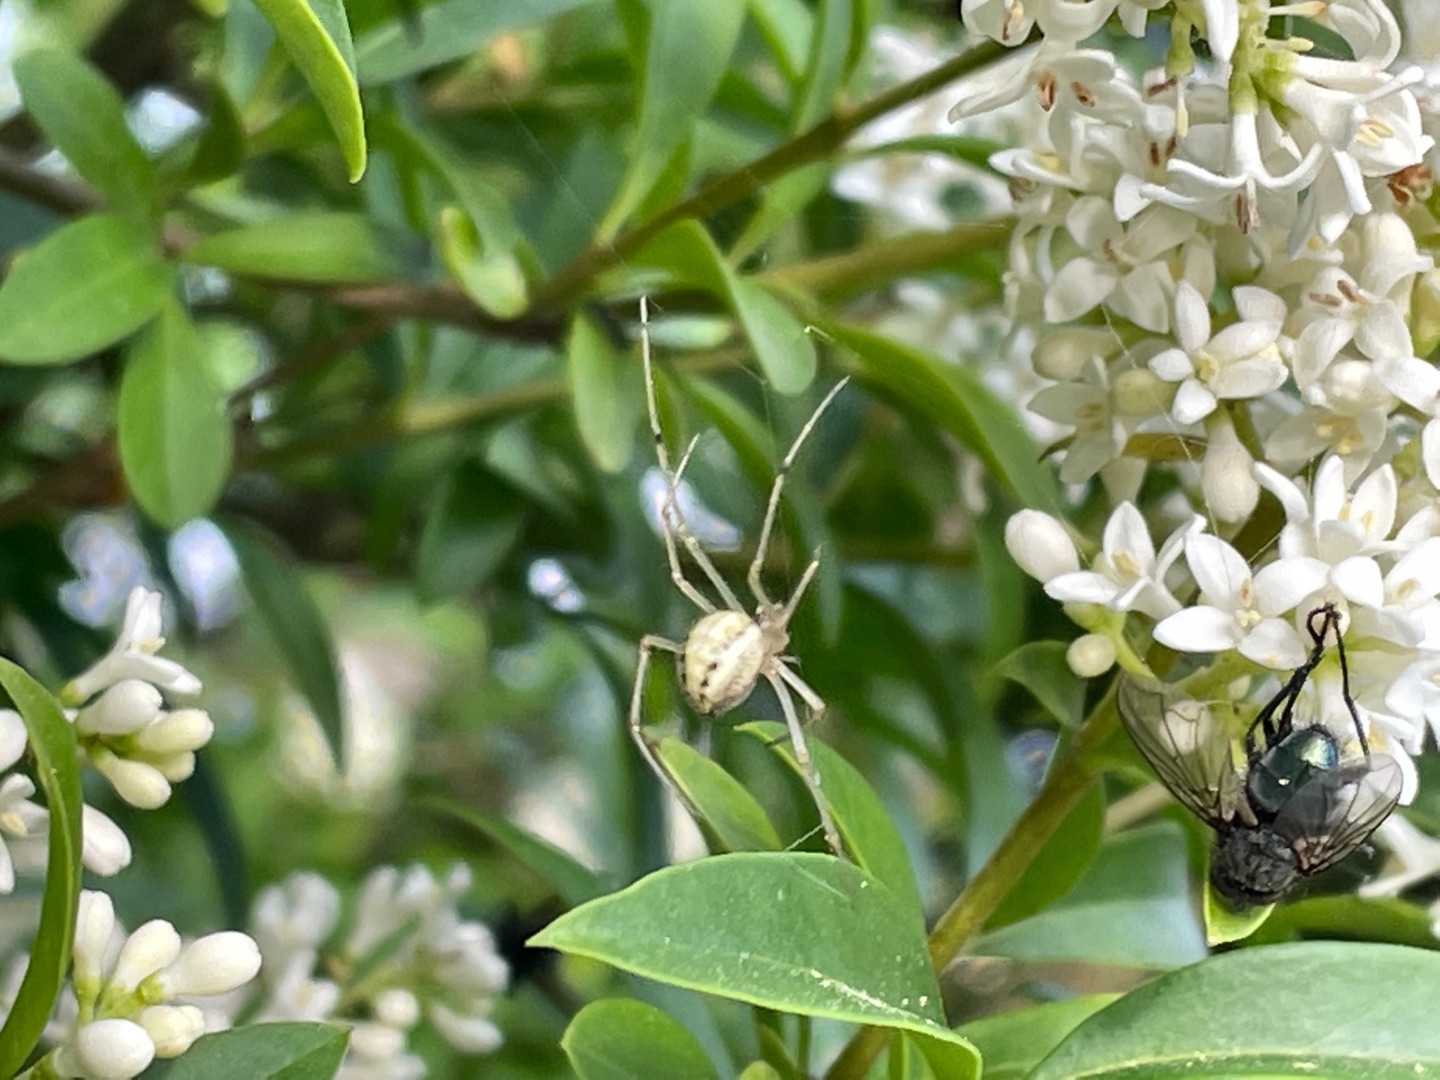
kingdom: Animalia
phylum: Arthropoda
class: Arachnida
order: Araneae
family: Theridiidae
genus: Enoplognatha
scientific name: Enoplognatha
